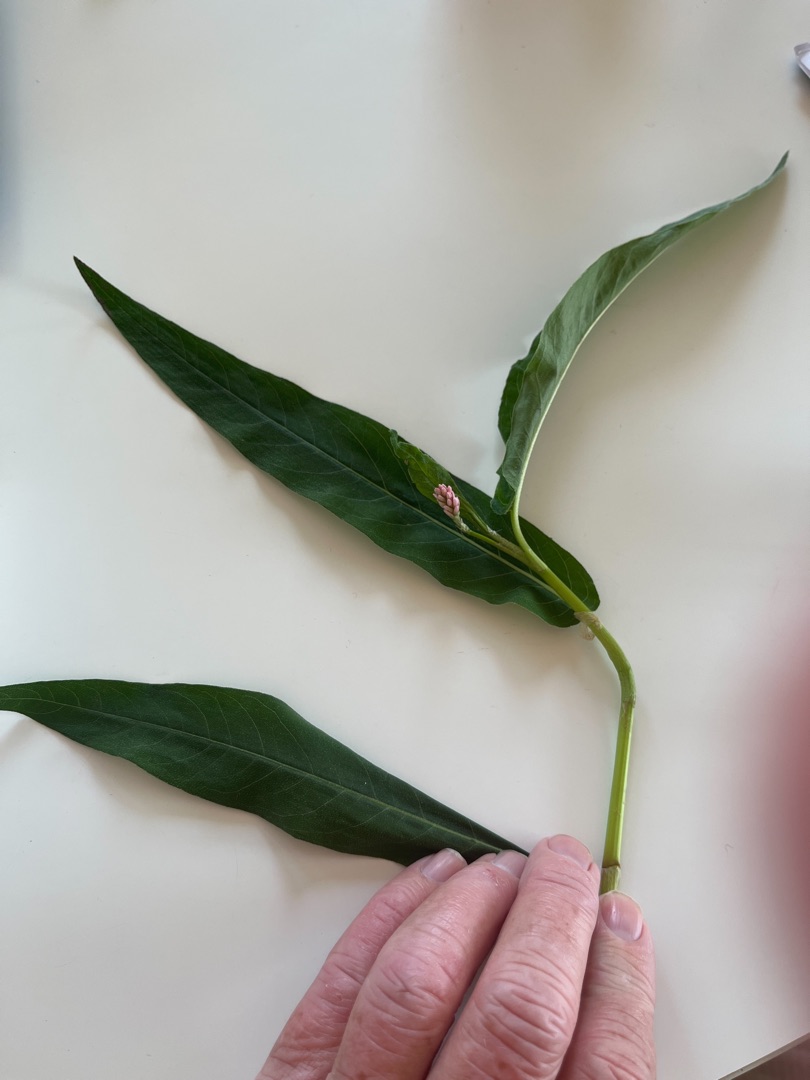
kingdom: Plantae
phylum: Tracheophyta
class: Magnoliopsida
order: Caryophyllales
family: Polygonaceae
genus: Persicaria
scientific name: Persicaria amphibia
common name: Vand-pileurt
